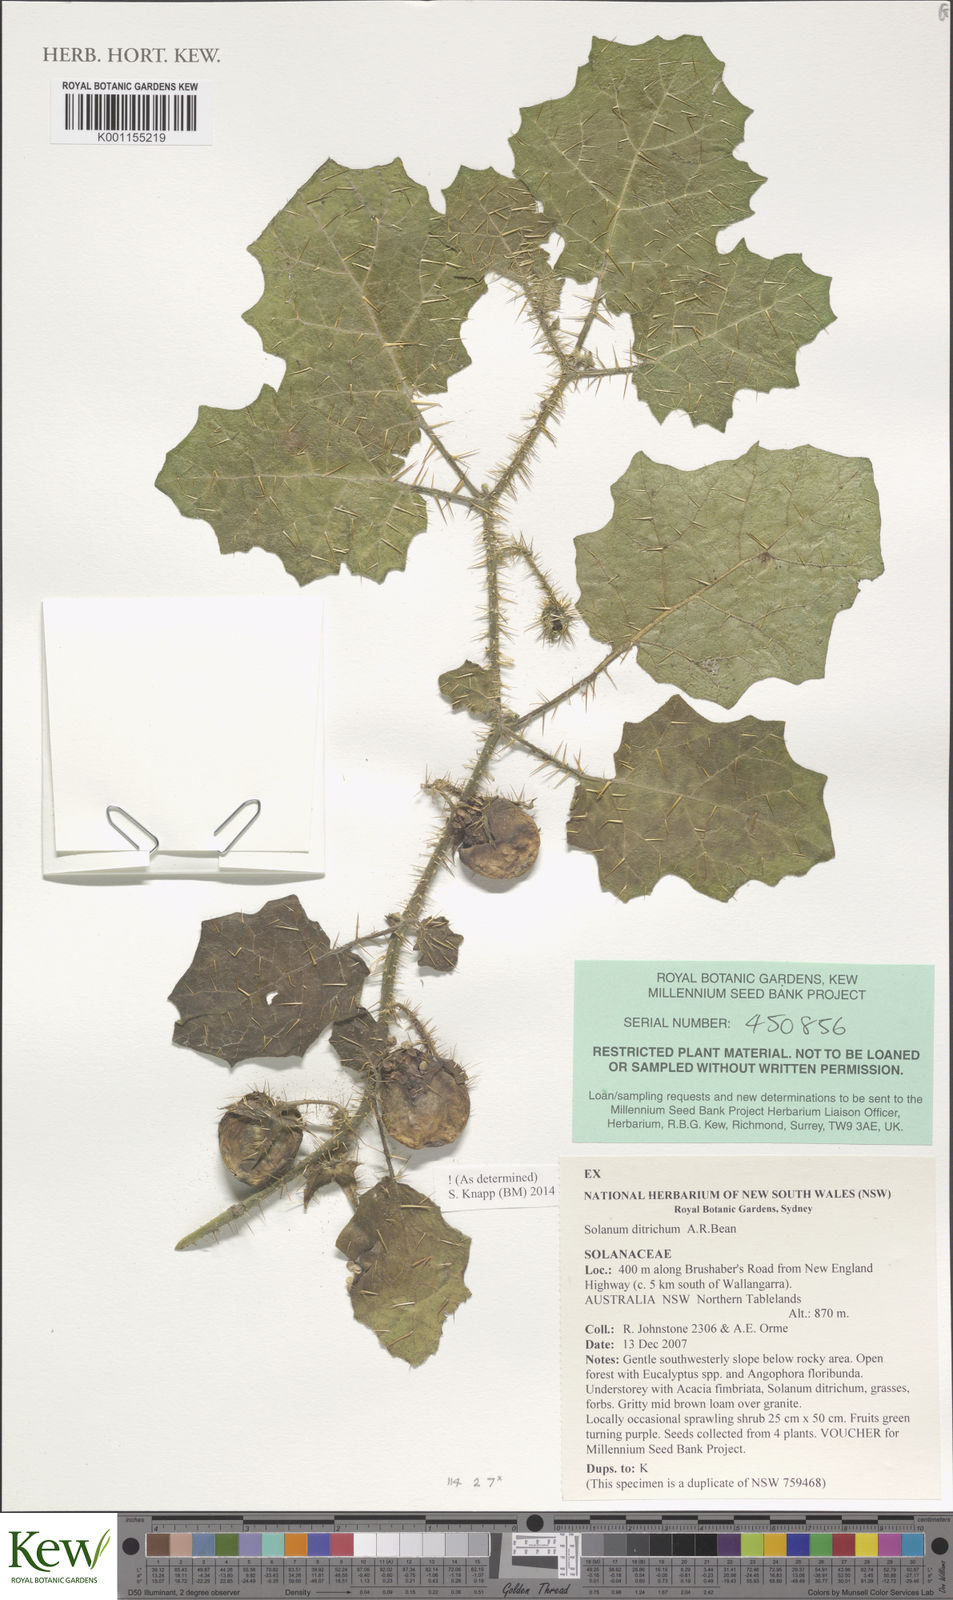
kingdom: Plantae
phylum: Tracheophyta
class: Magnoliopsida
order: Solanales
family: Solanaceae
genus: Solanum
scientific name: Solanum ditrichum
